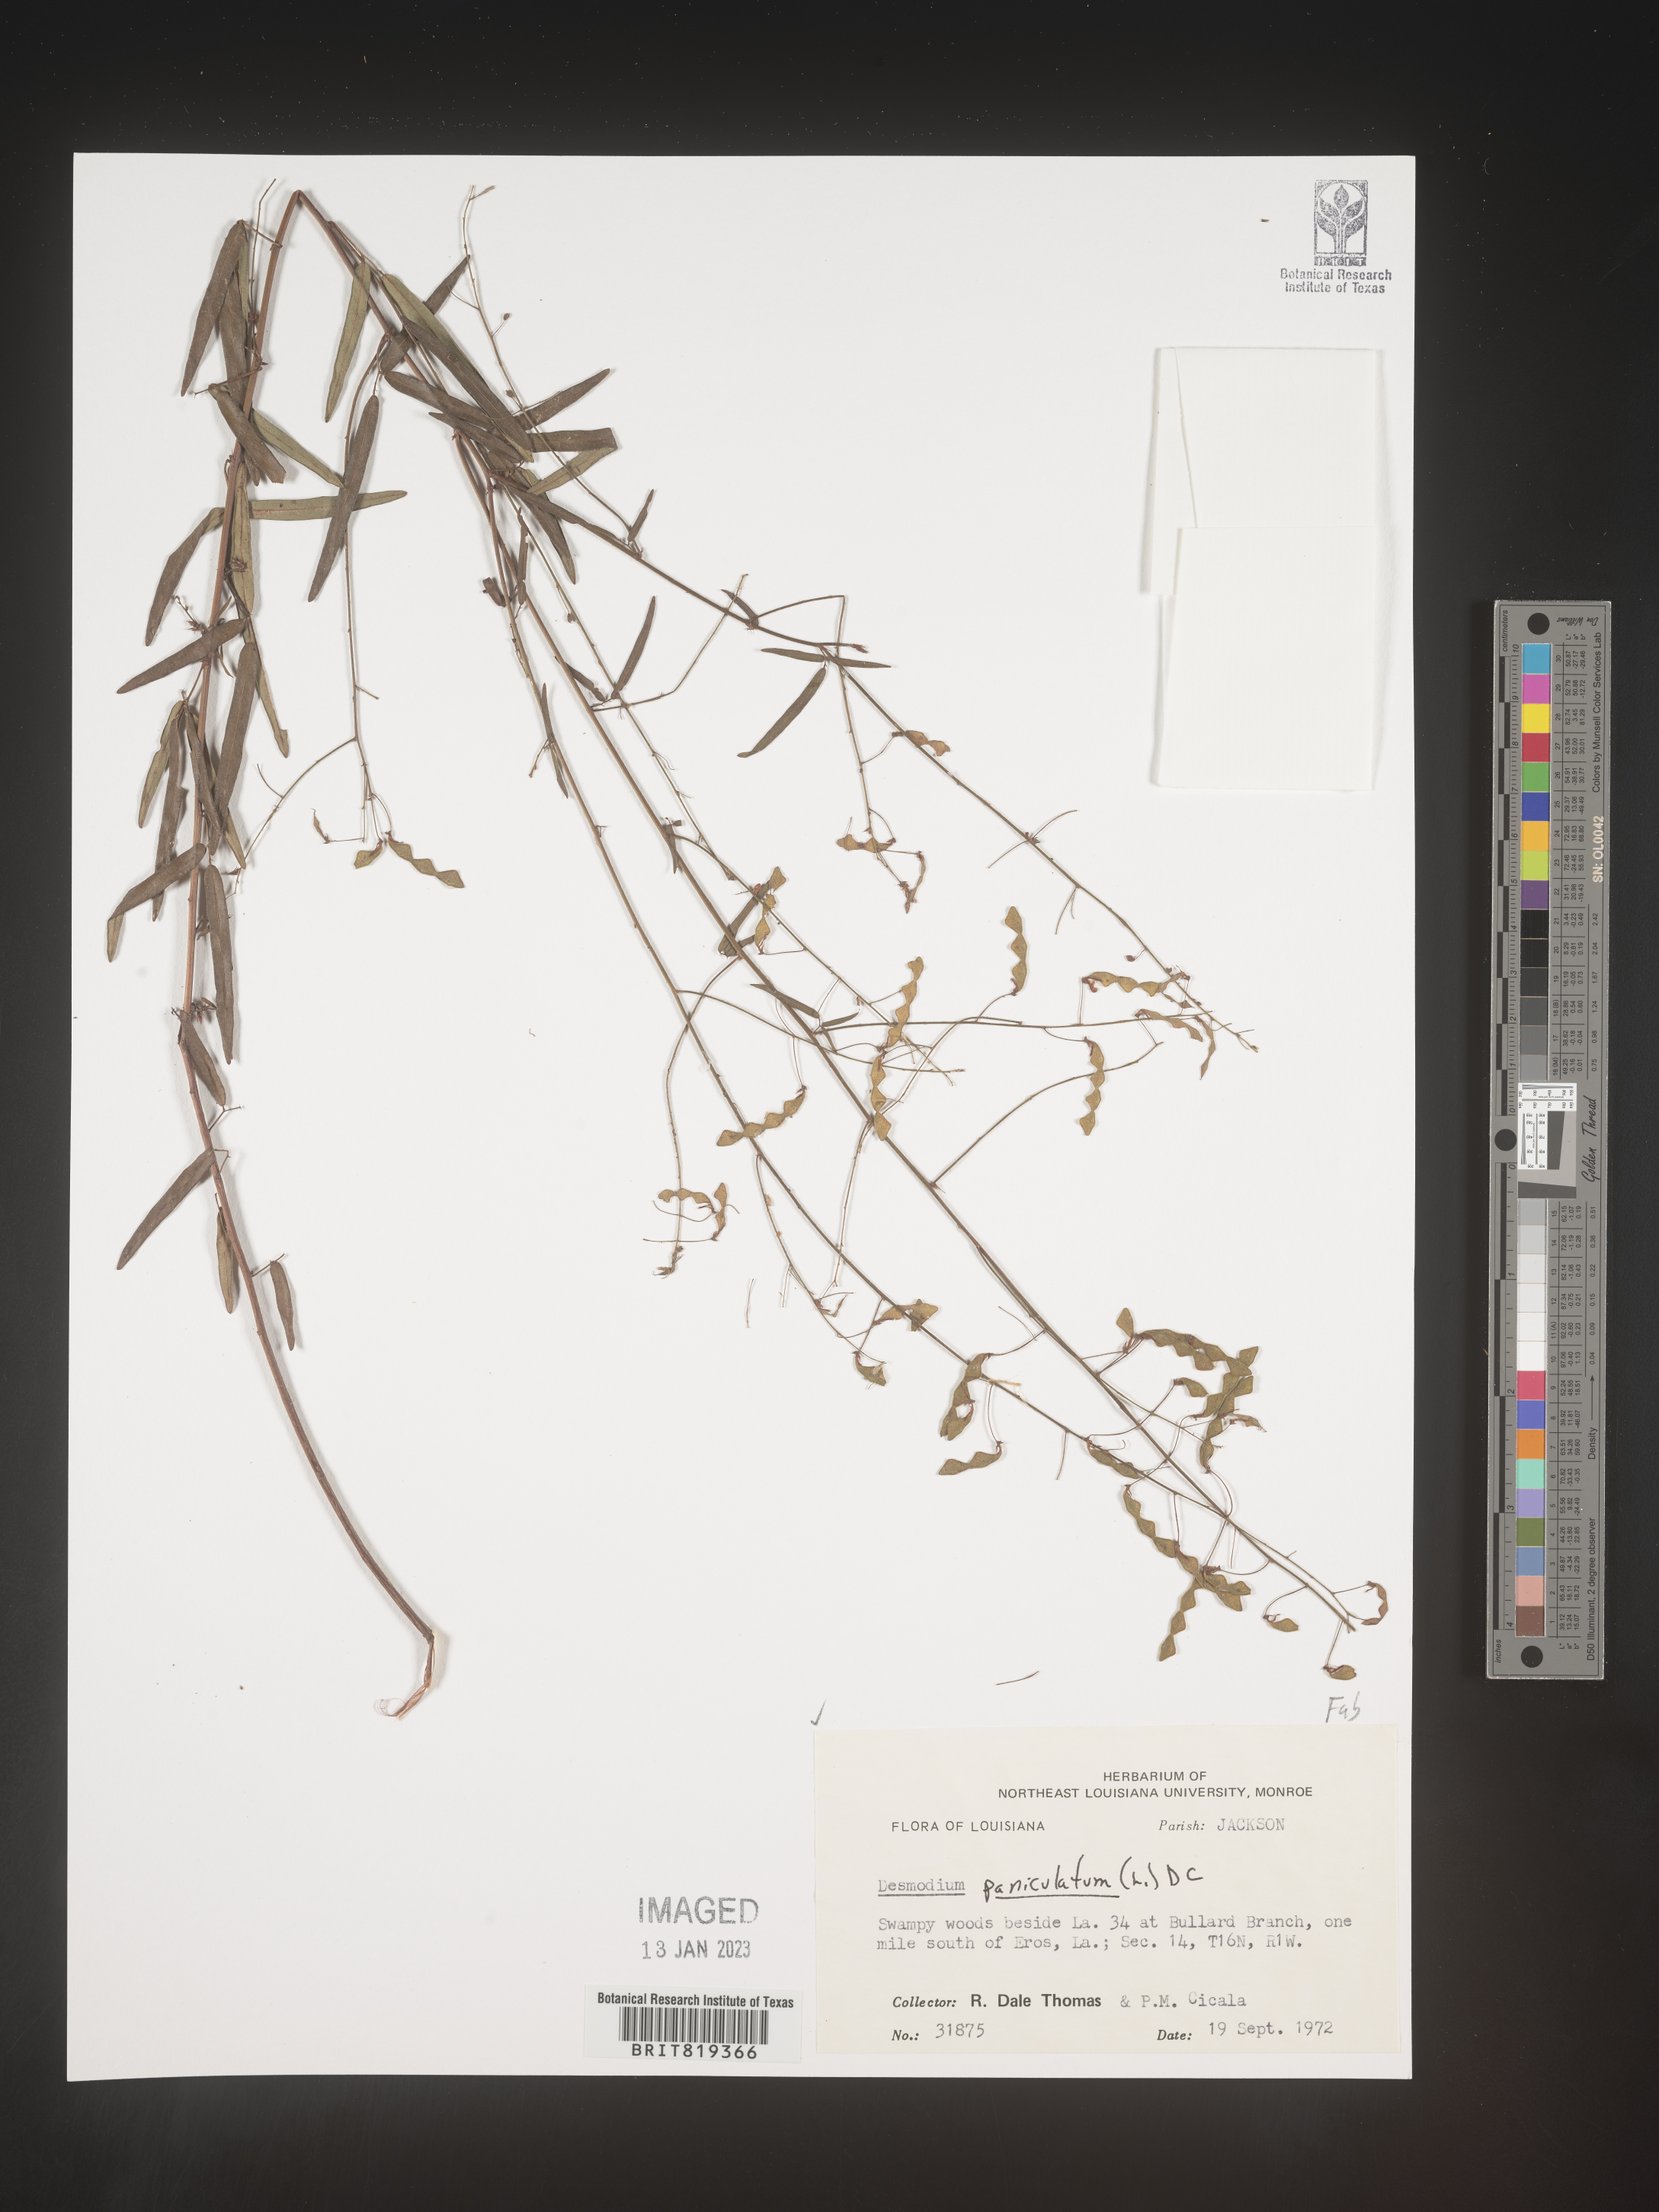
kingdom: Plantae
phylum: Tracheophyta
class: Magnoliopsida
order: Fabales
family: Fabaceae
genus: Desmodium
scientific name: Desmodium paniculatum
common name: Panicled tick-clover
